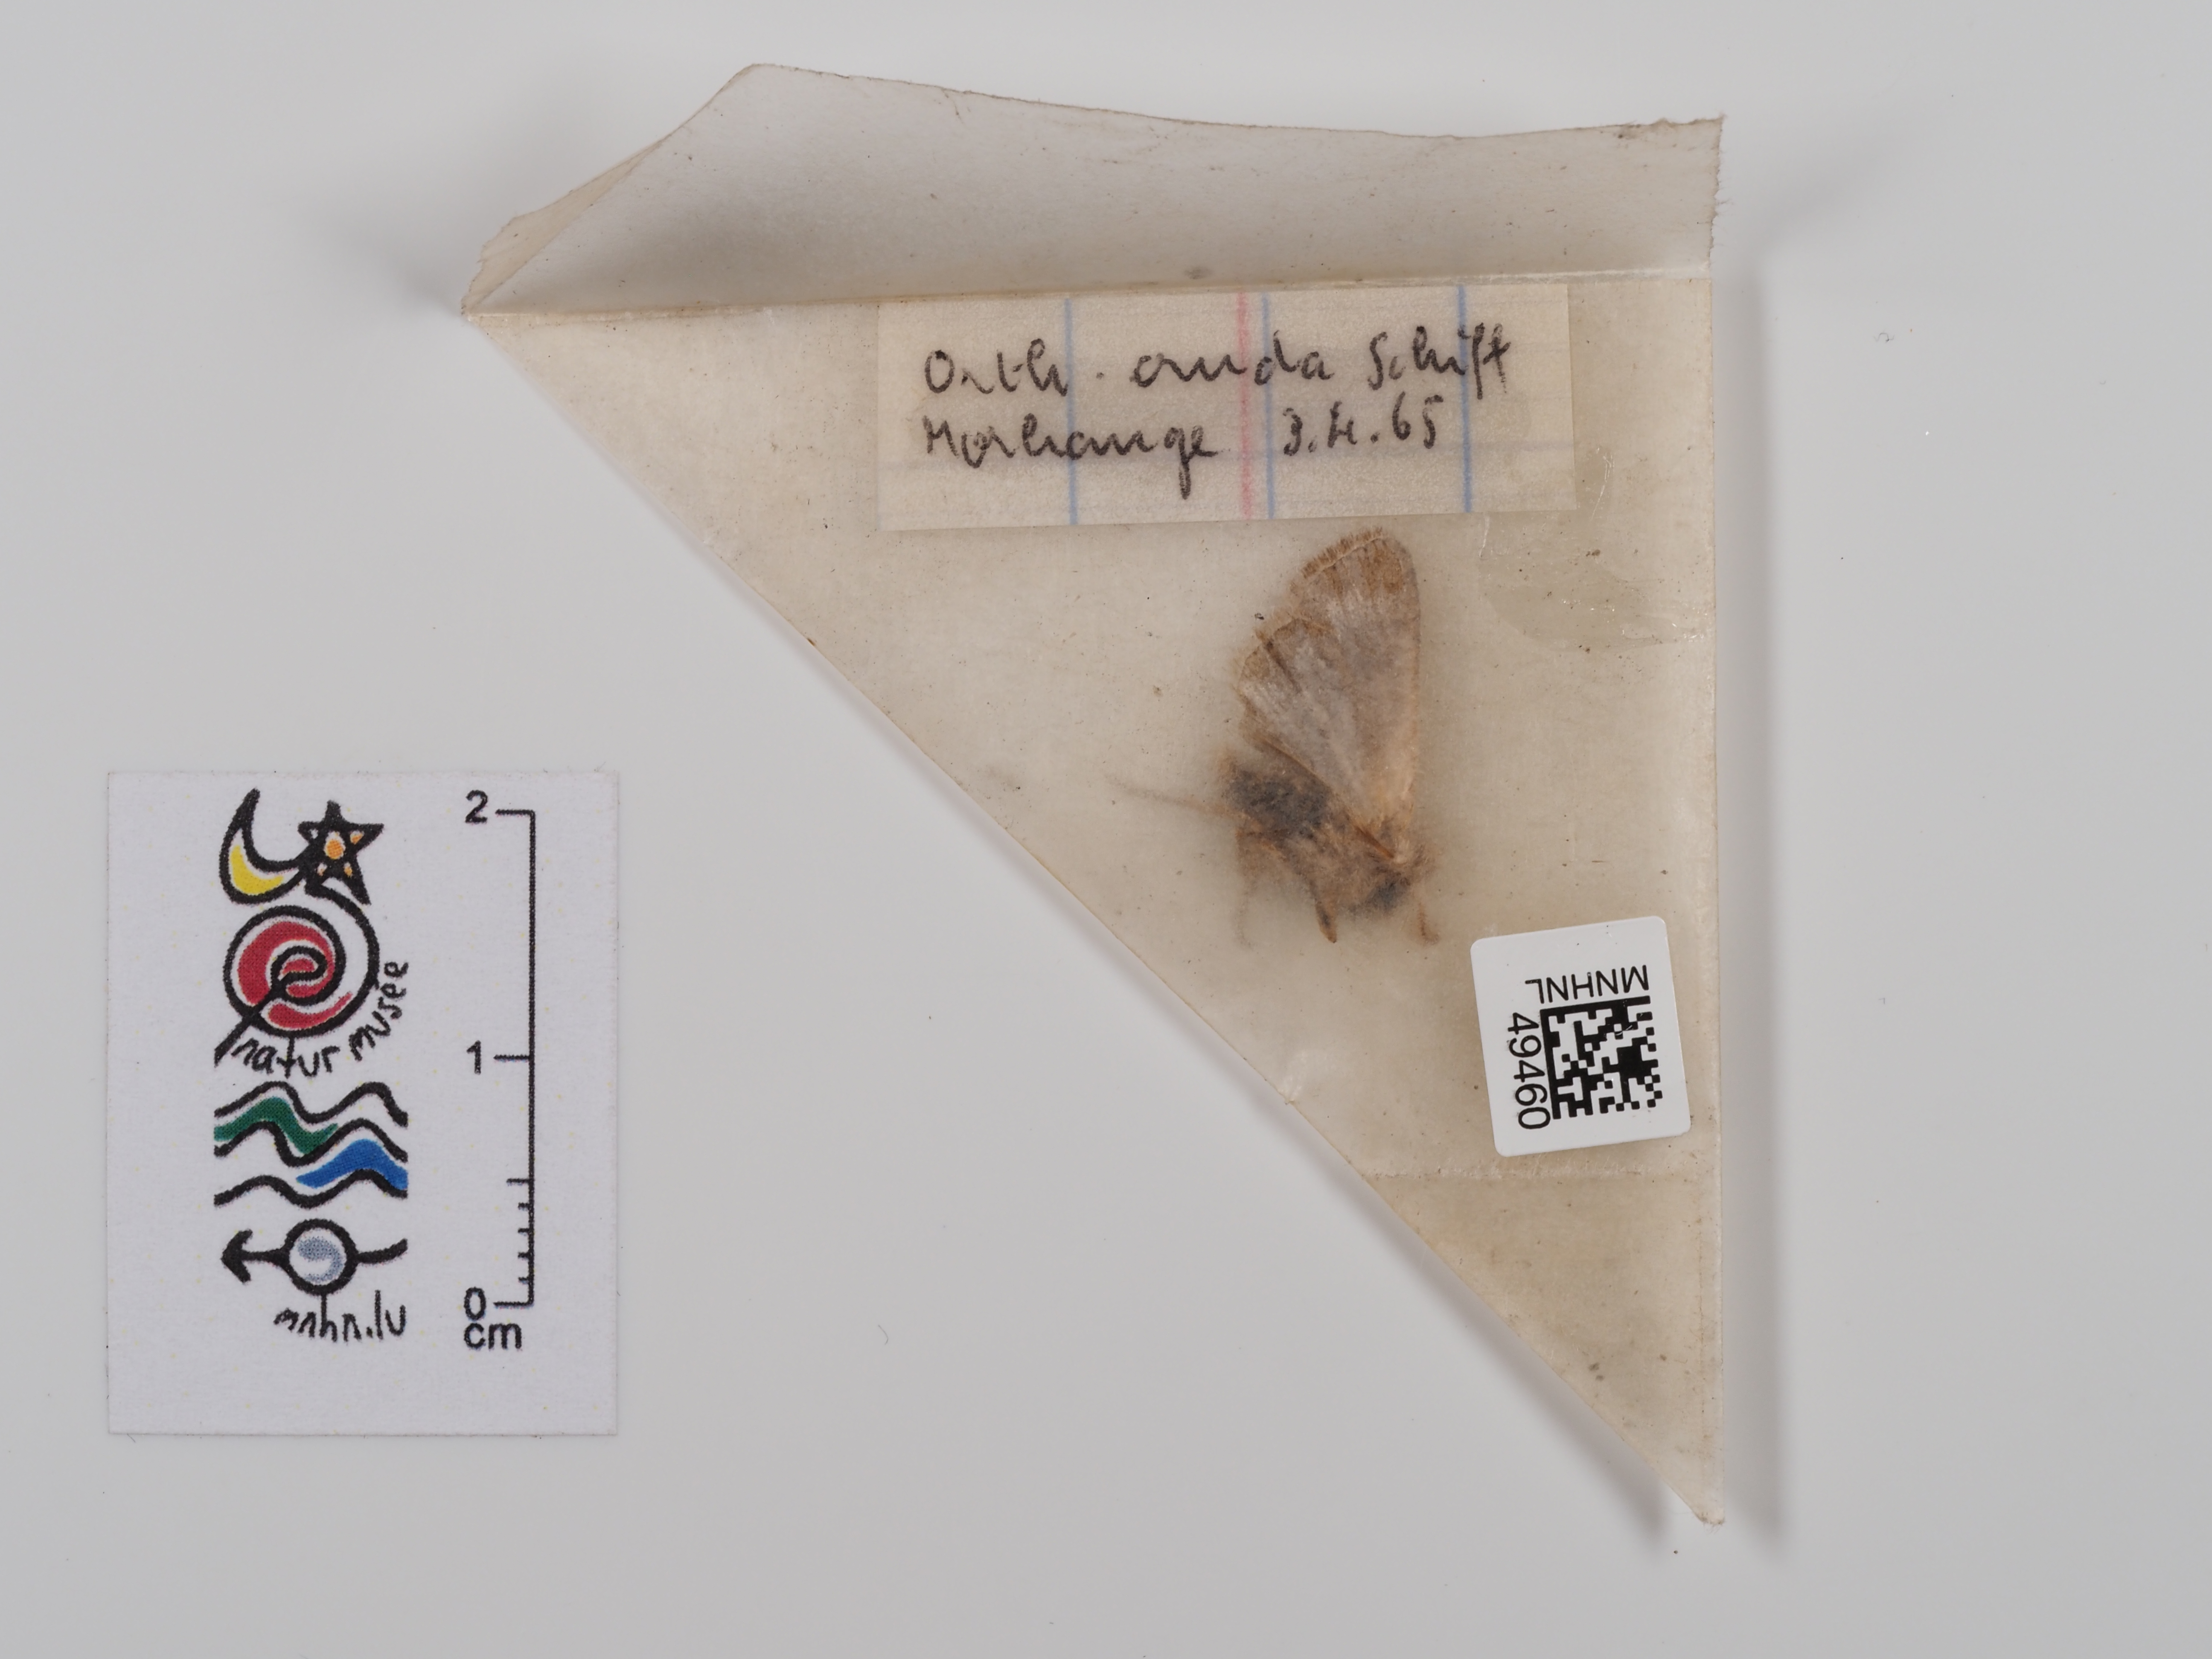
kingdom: Animalia
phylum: Arthropoda
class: Insecta
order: Lepidoptera
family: Noctuidae
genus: Orthosia
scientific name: Orthosia cruda
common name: Small quaker
